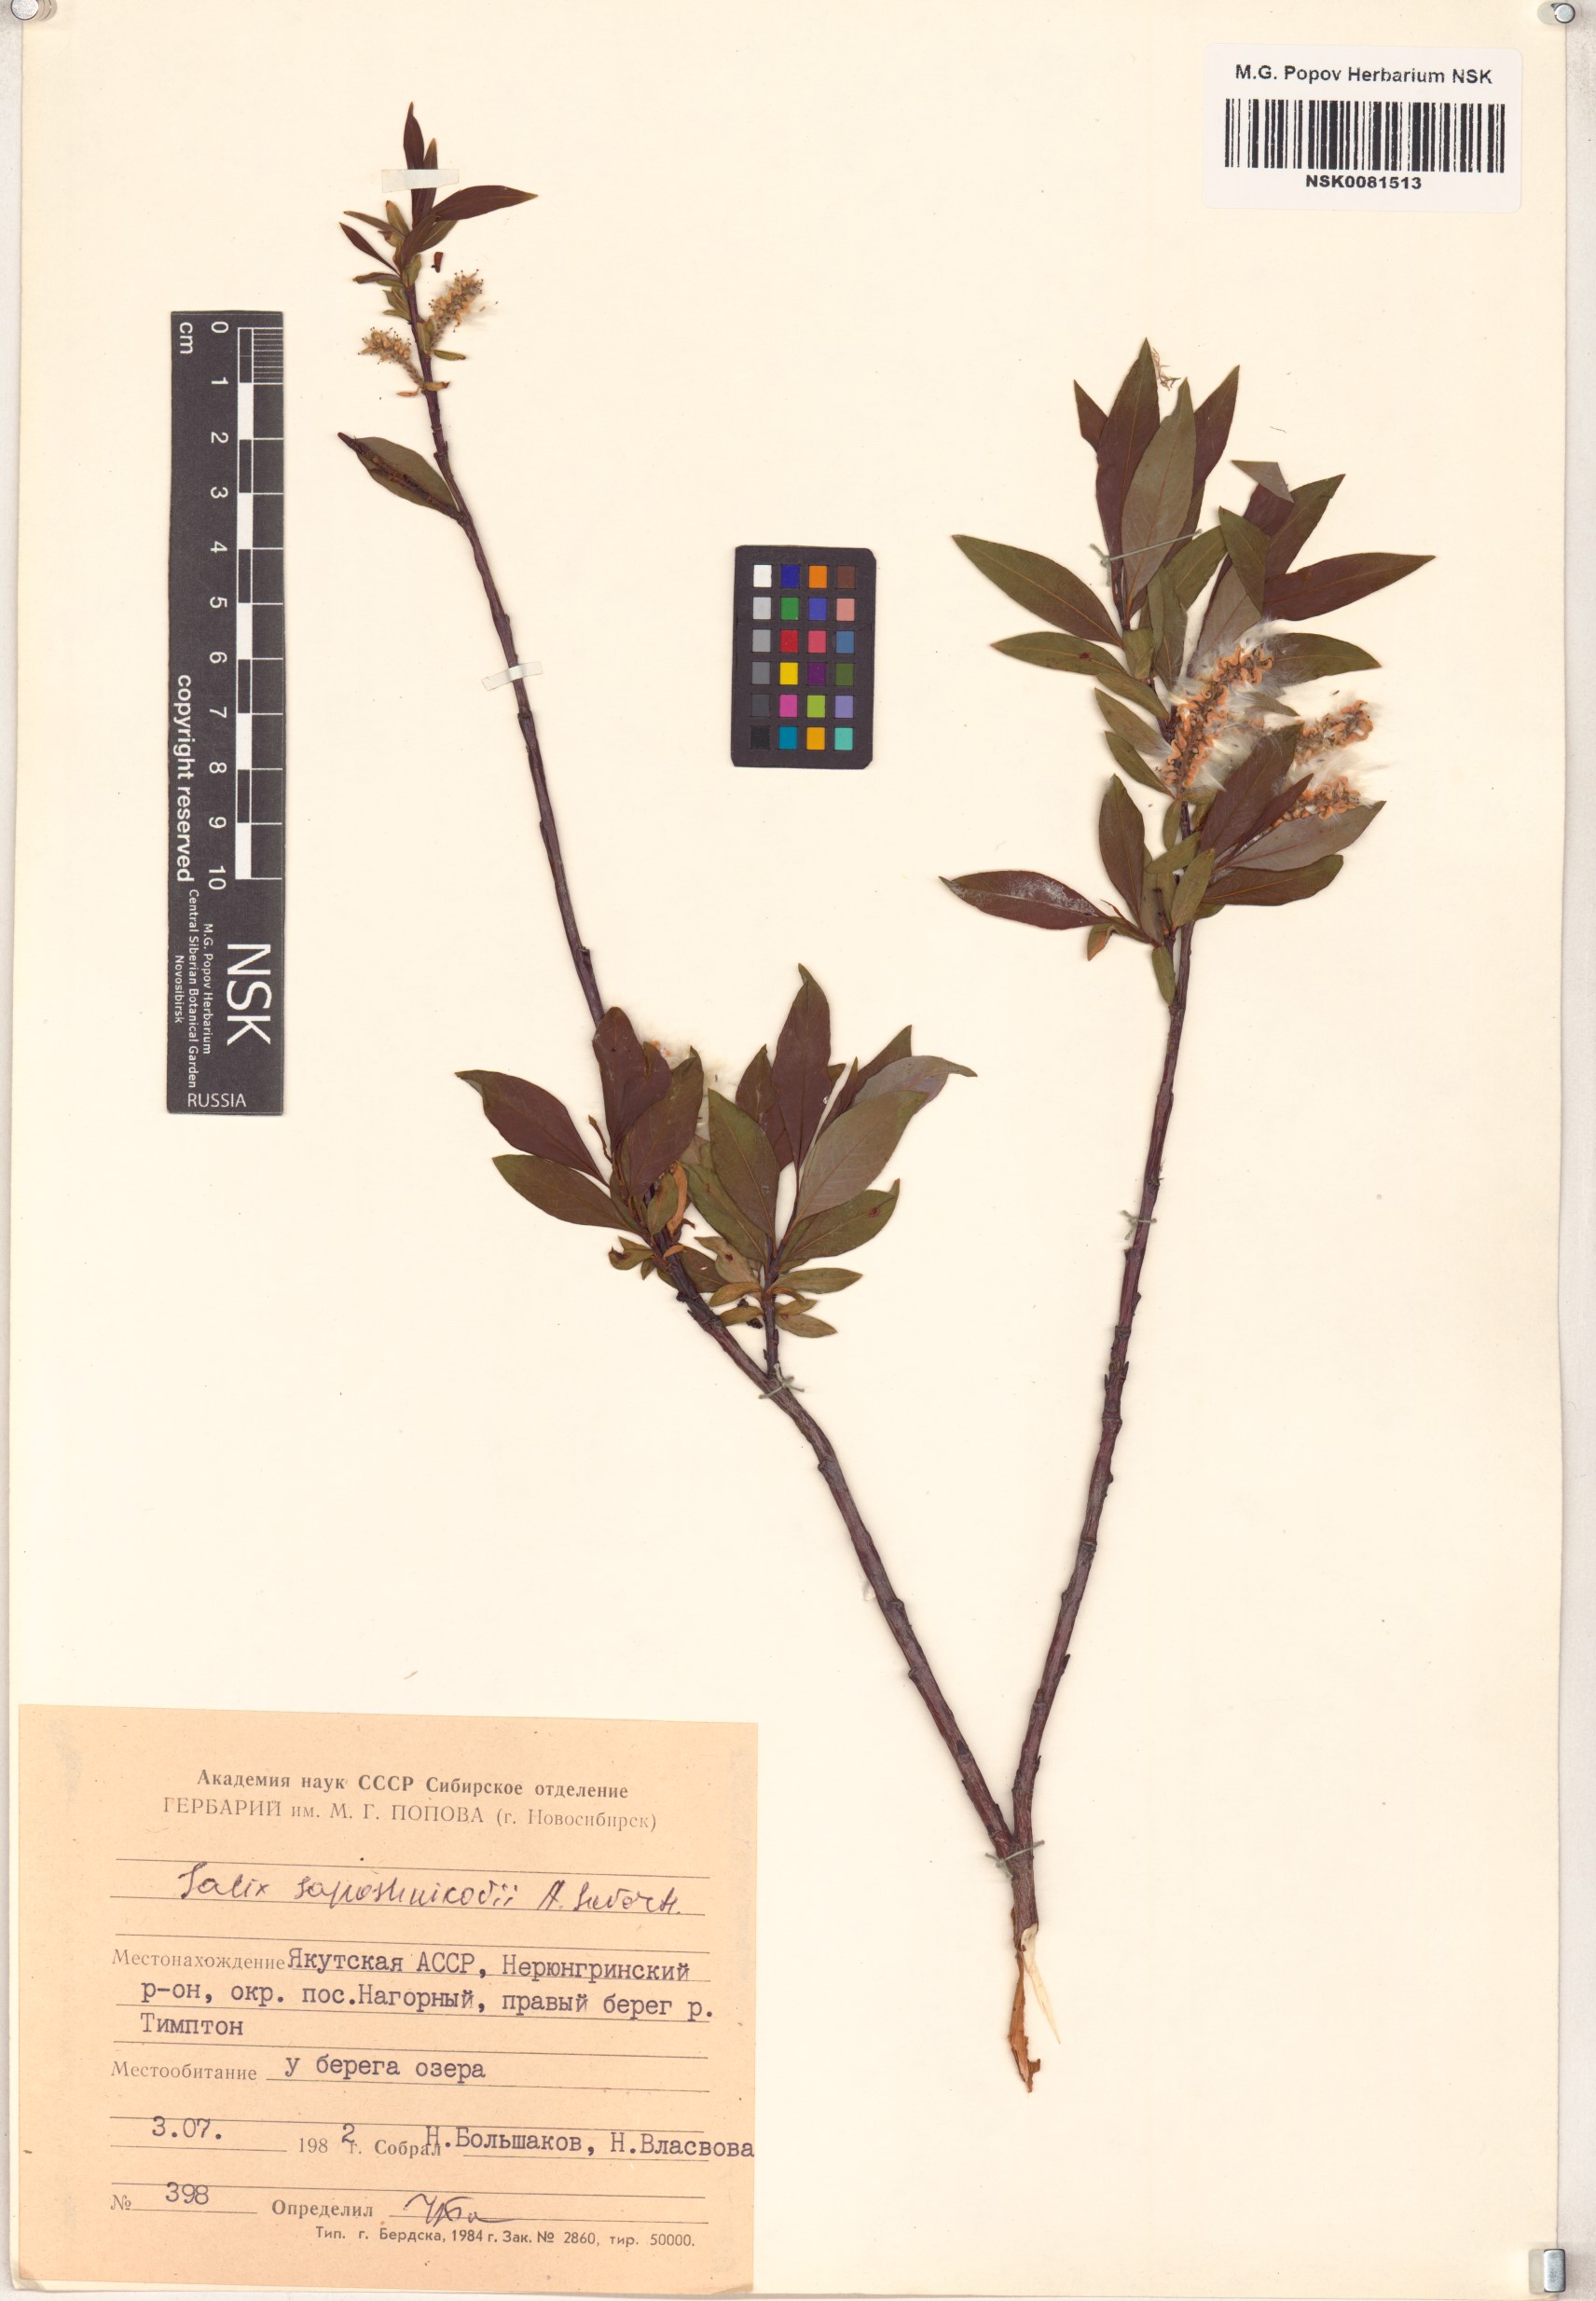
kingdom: Plantae
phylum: Tracheophyta
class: Magnoliopsida
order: Malpighiales
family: Salicaceae
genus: Salix
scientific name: Salix saposhnikovii
